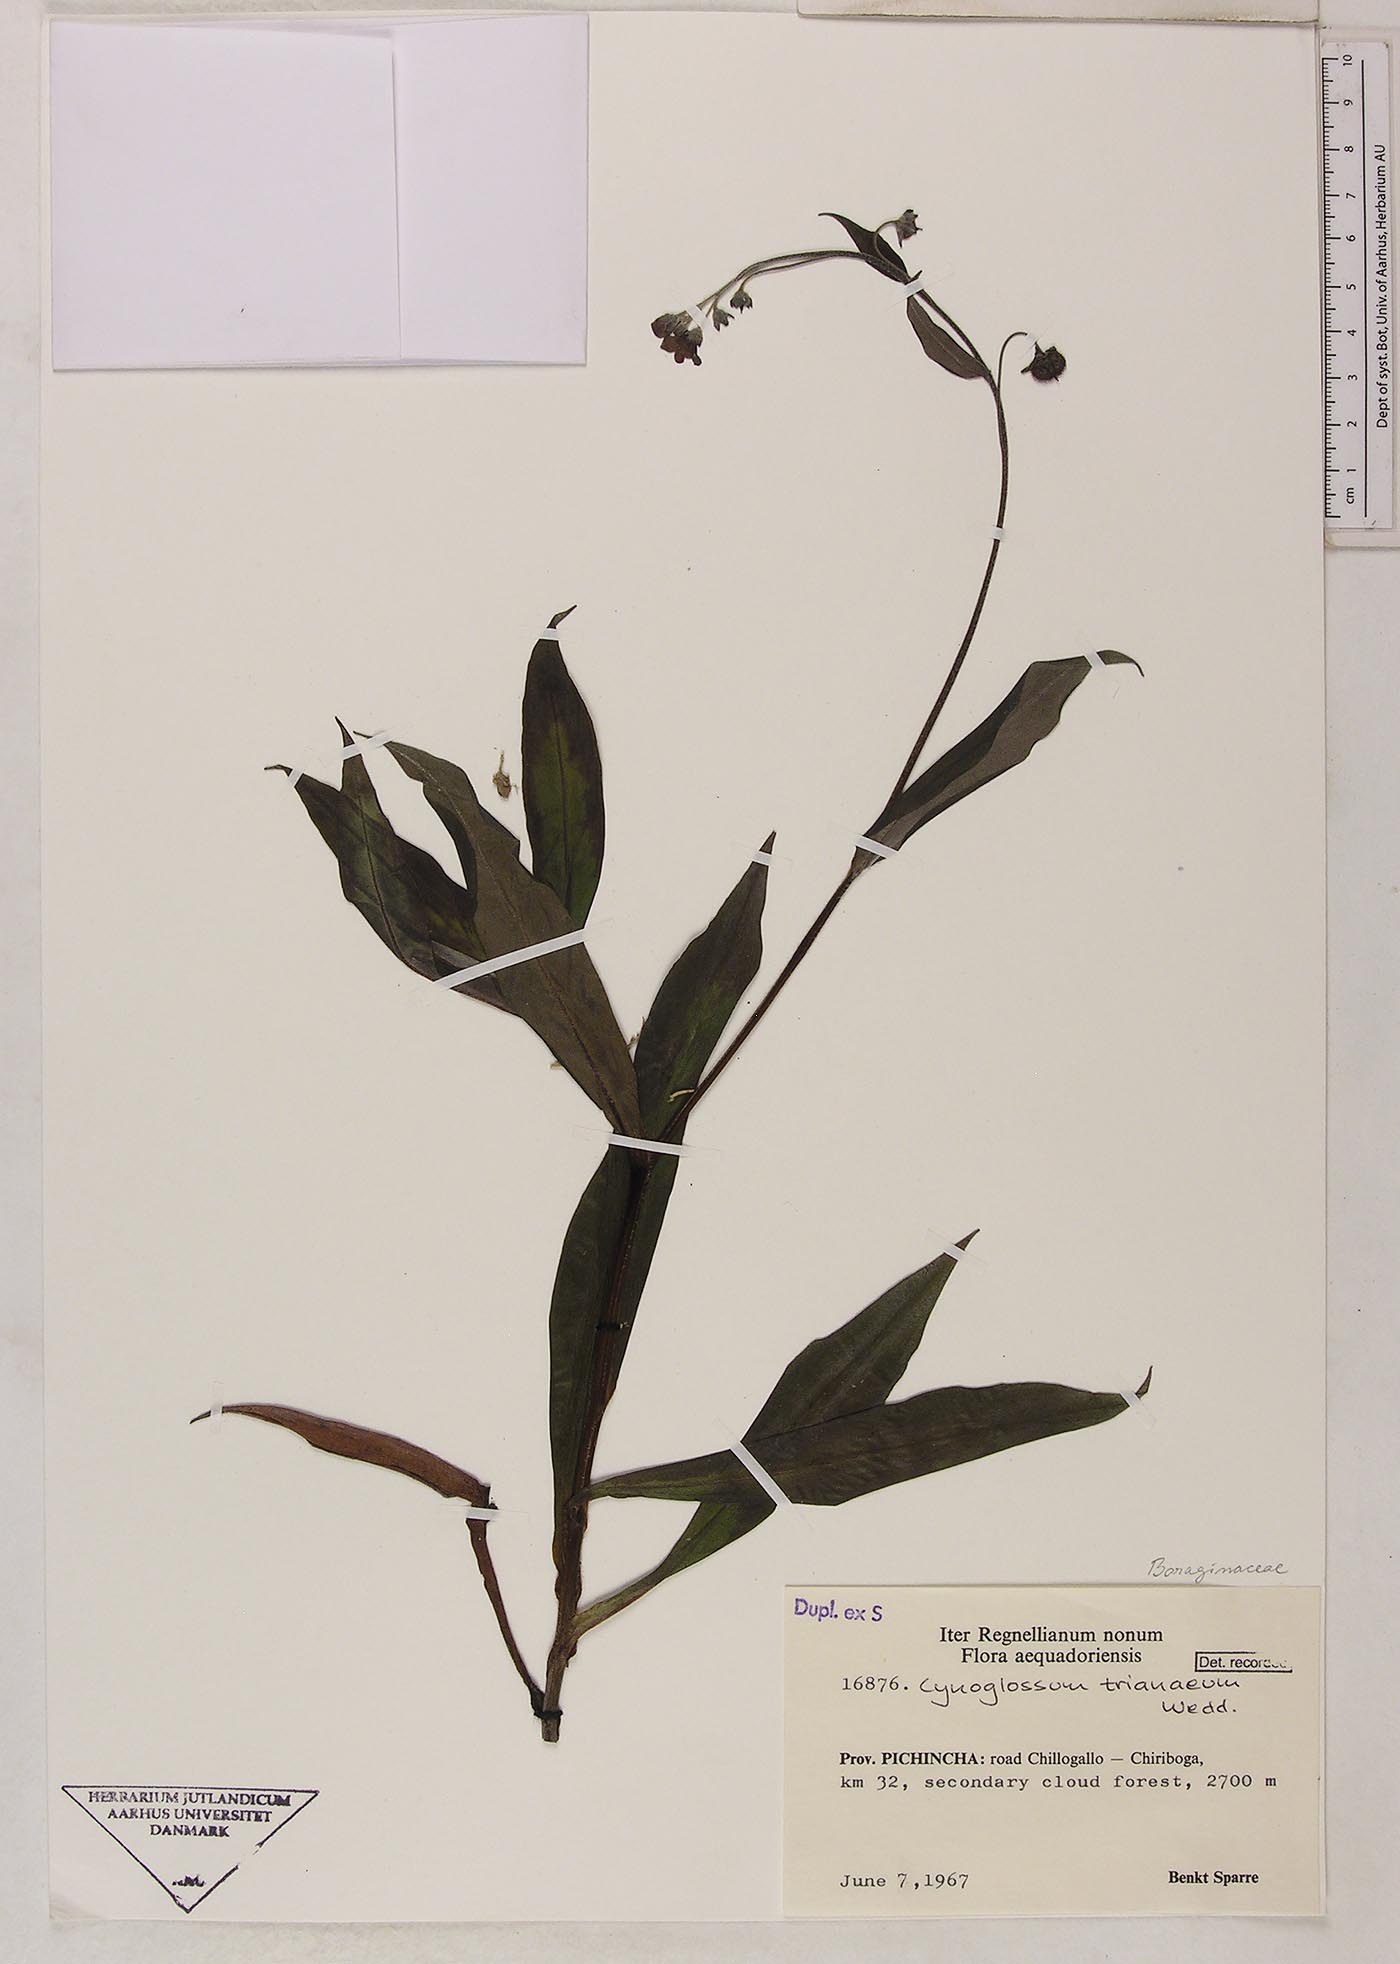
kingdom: Plantae
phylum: Tracheophyta
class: Magnoliopsida
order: Boraginales
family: Boraginaceae
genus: Selkirkia
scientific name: Selkirkia trianaeum
